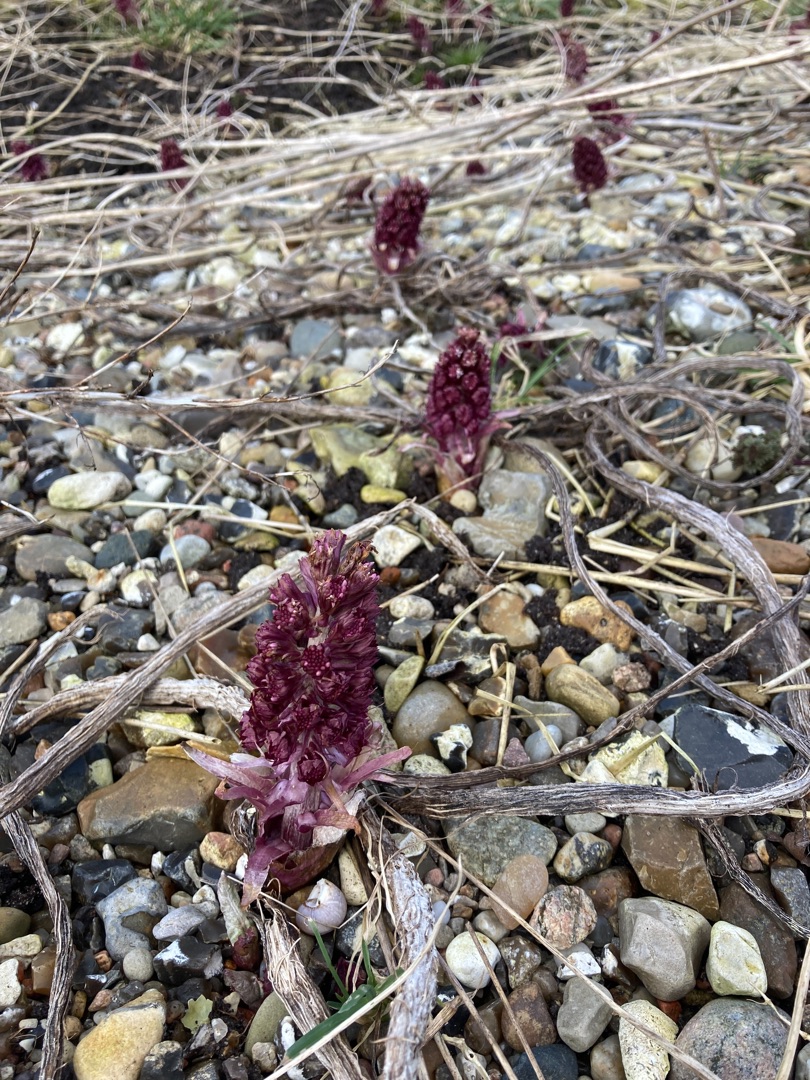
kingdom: Plantae
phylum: Tracheophyta
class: Magnoliopsida
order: Asterales
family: Asteraceae
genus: Petasites
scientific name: Petasites hybridus
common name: Rød hestehov
